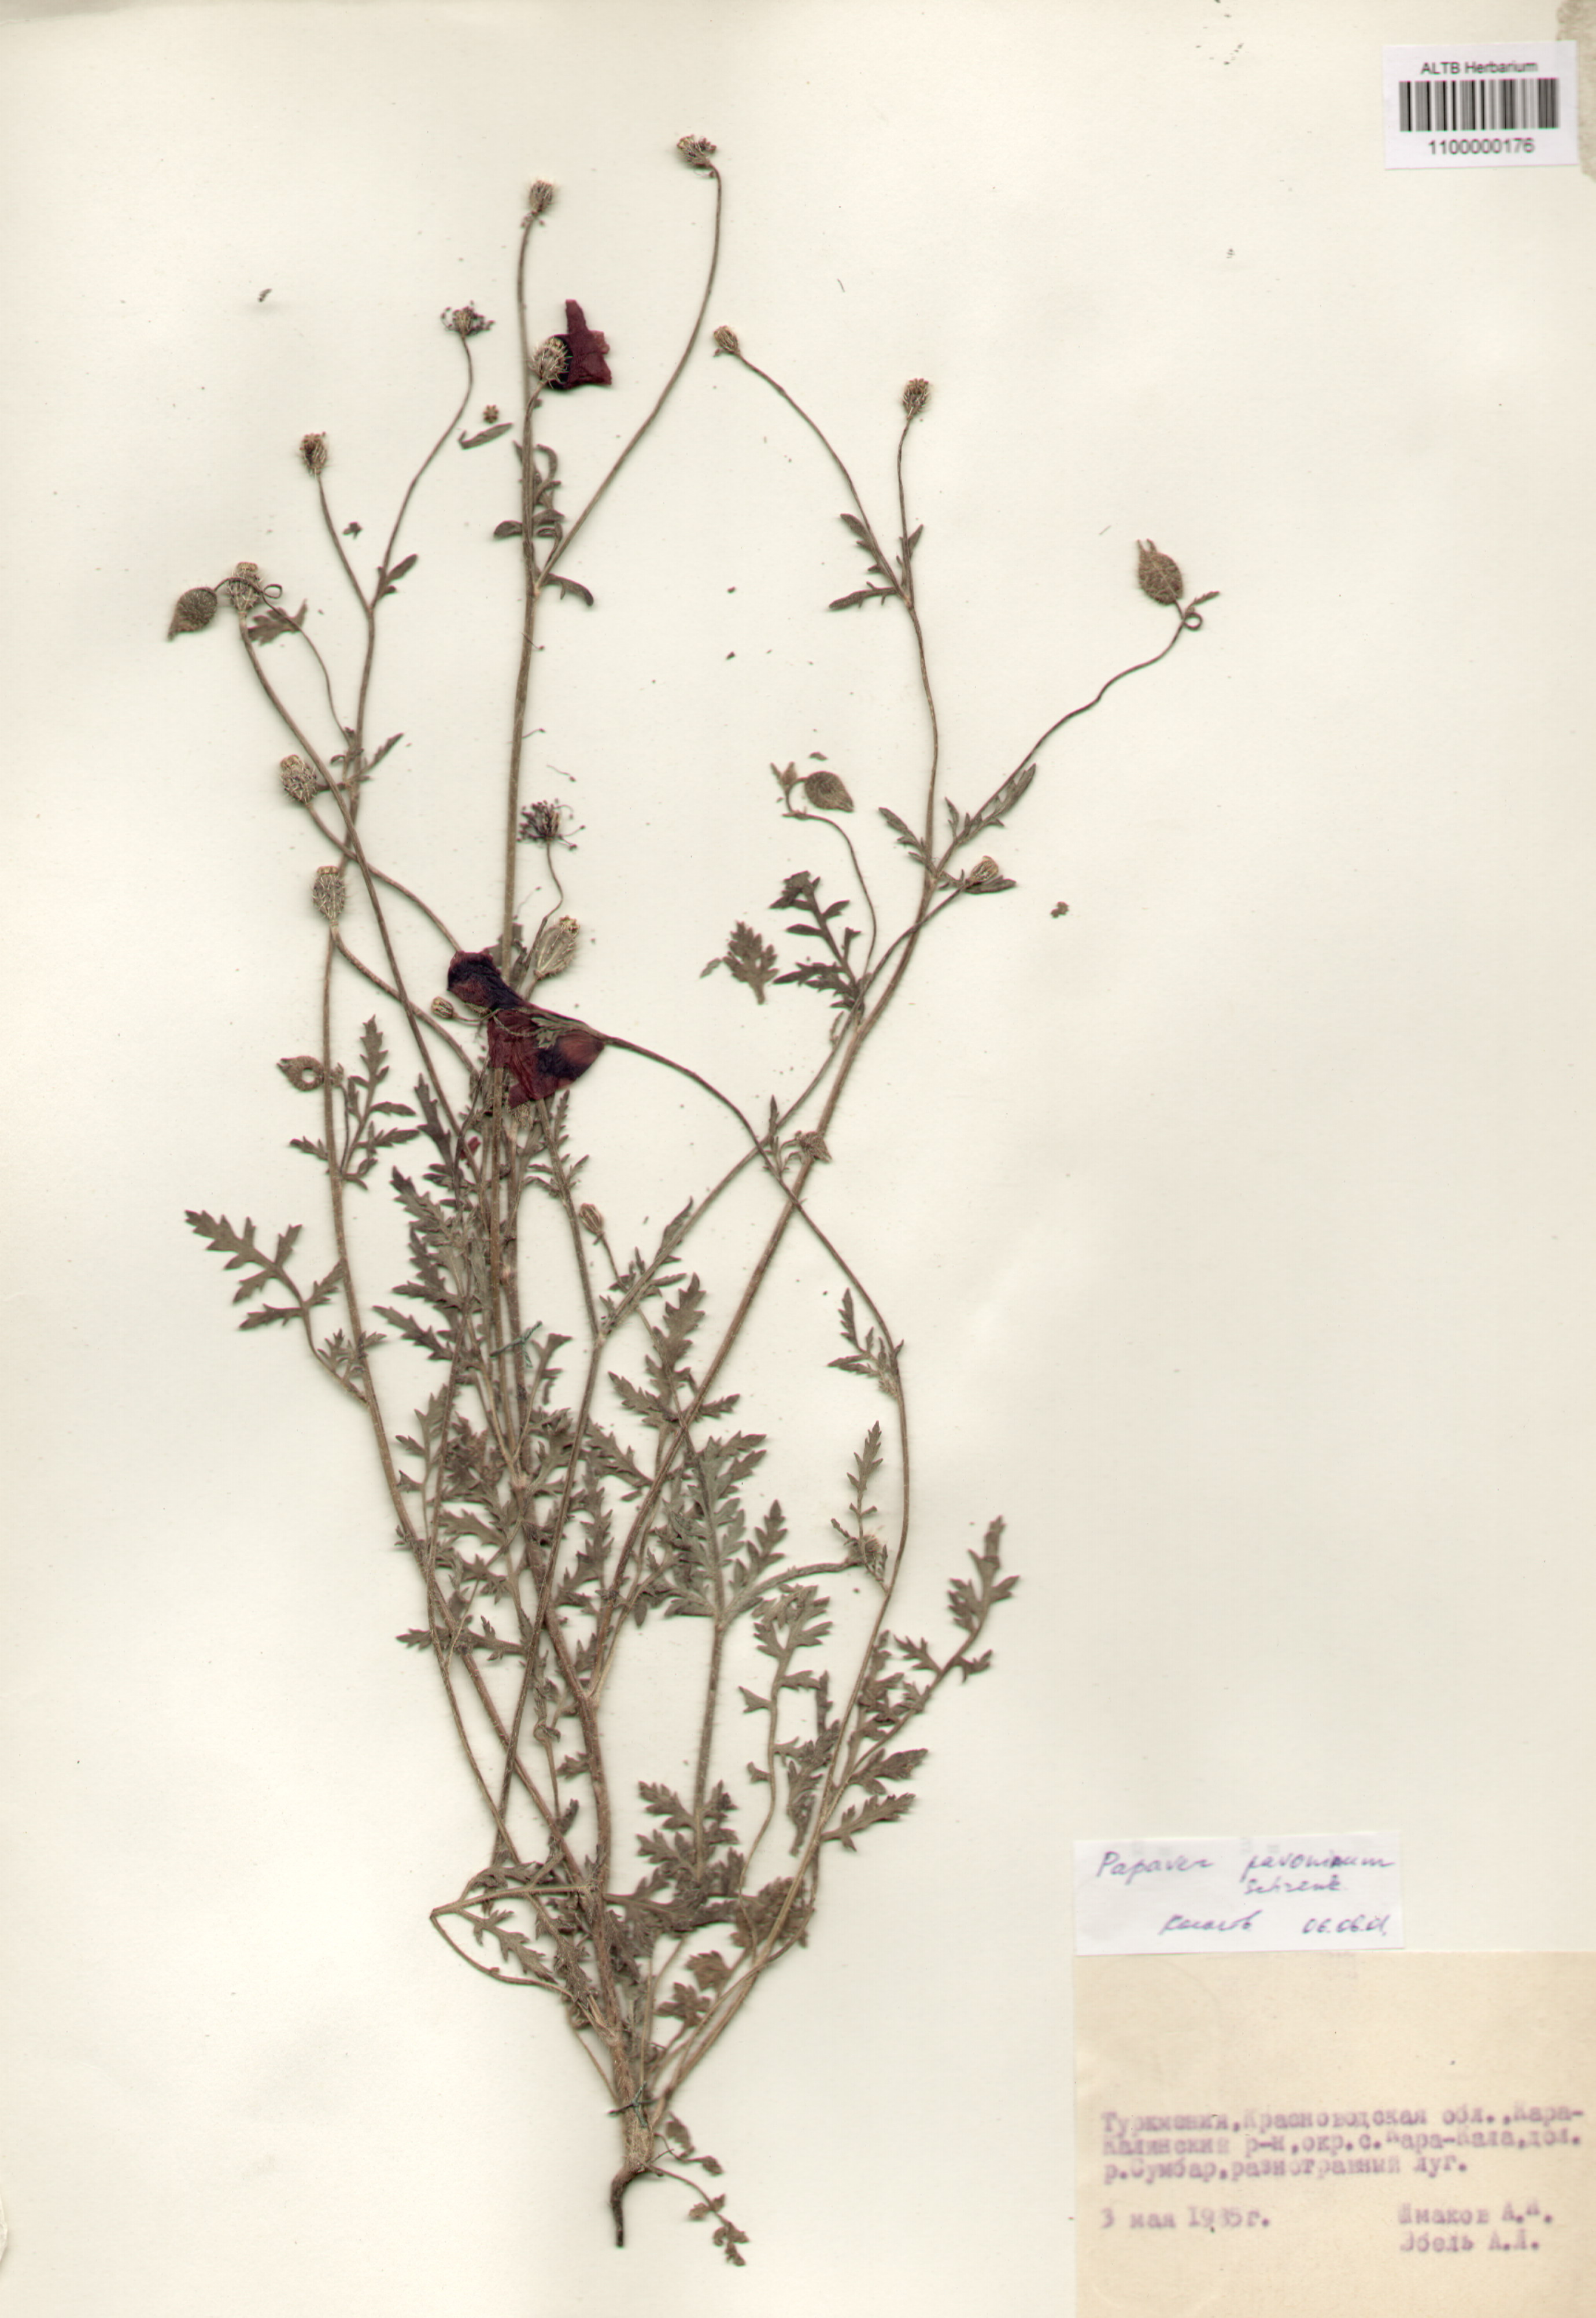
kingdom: Plantae
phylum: Tracheophyta
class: Magnoliopsida
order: Ranunculales
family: Papaveraceae
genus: Papaver
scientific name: Papaver pavoninum
